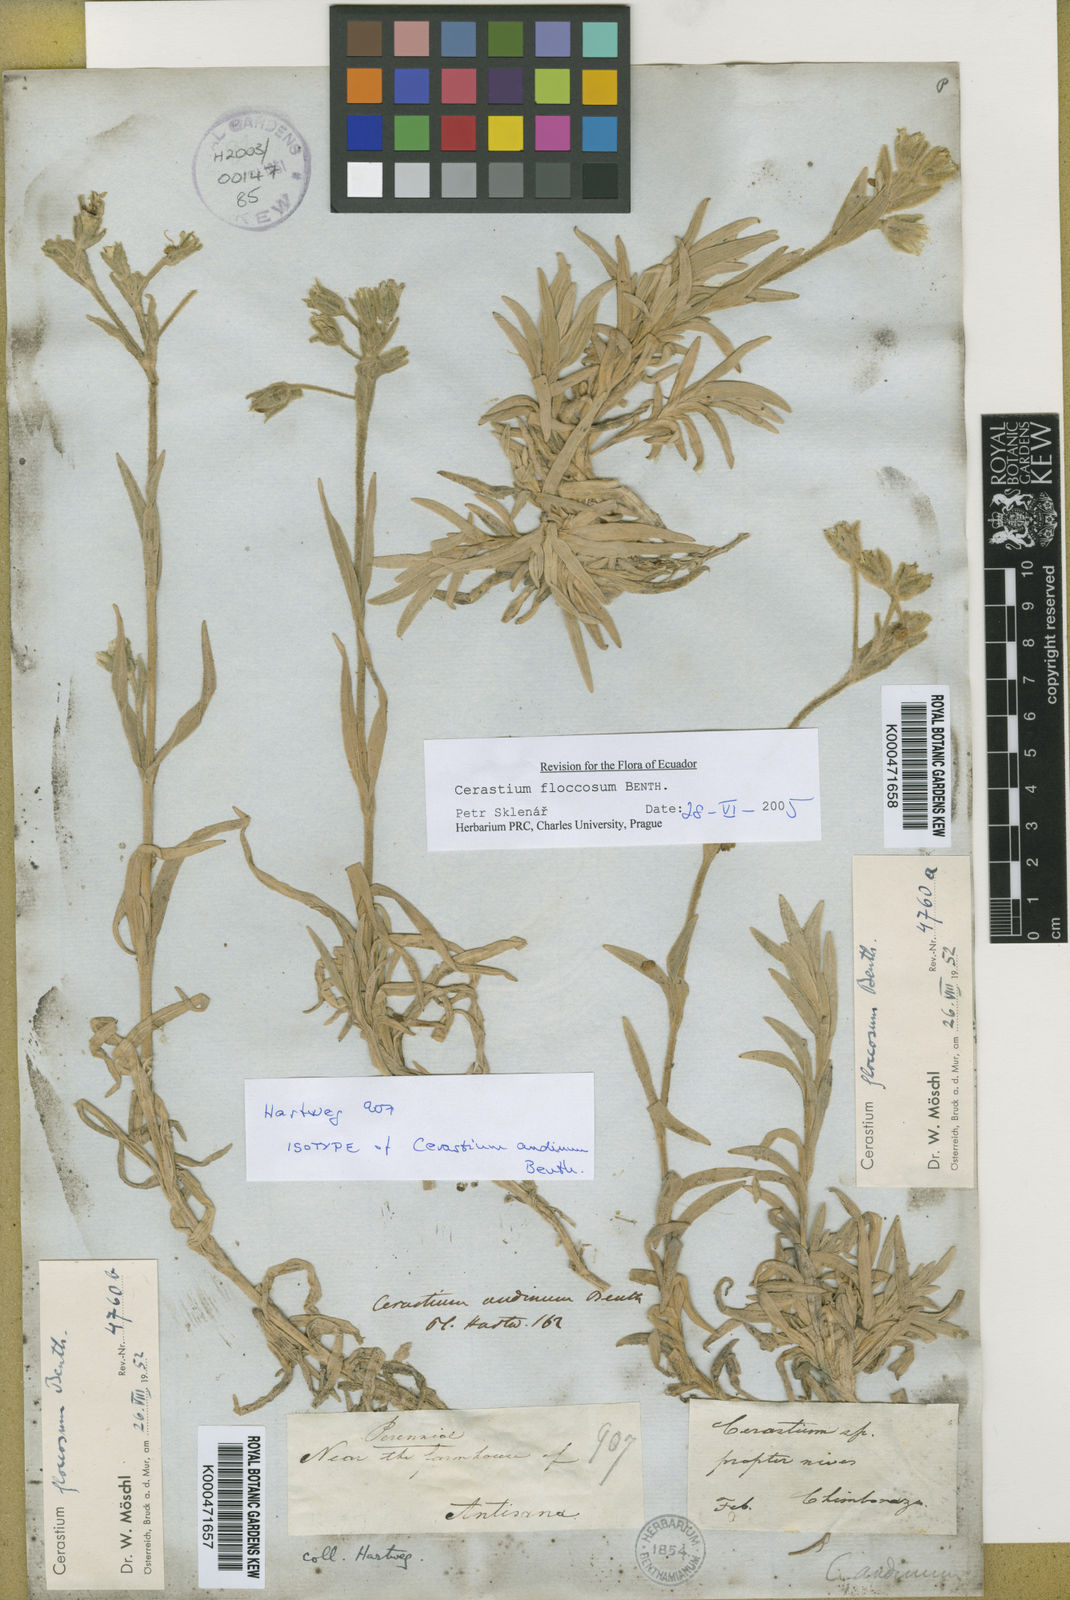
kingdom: Plantae
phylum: Tracheophyta
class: Magnoliopsida
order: Caryophyllales
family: Caryophyllaceae
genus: Cerastium
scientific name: Cerastium floccosum
